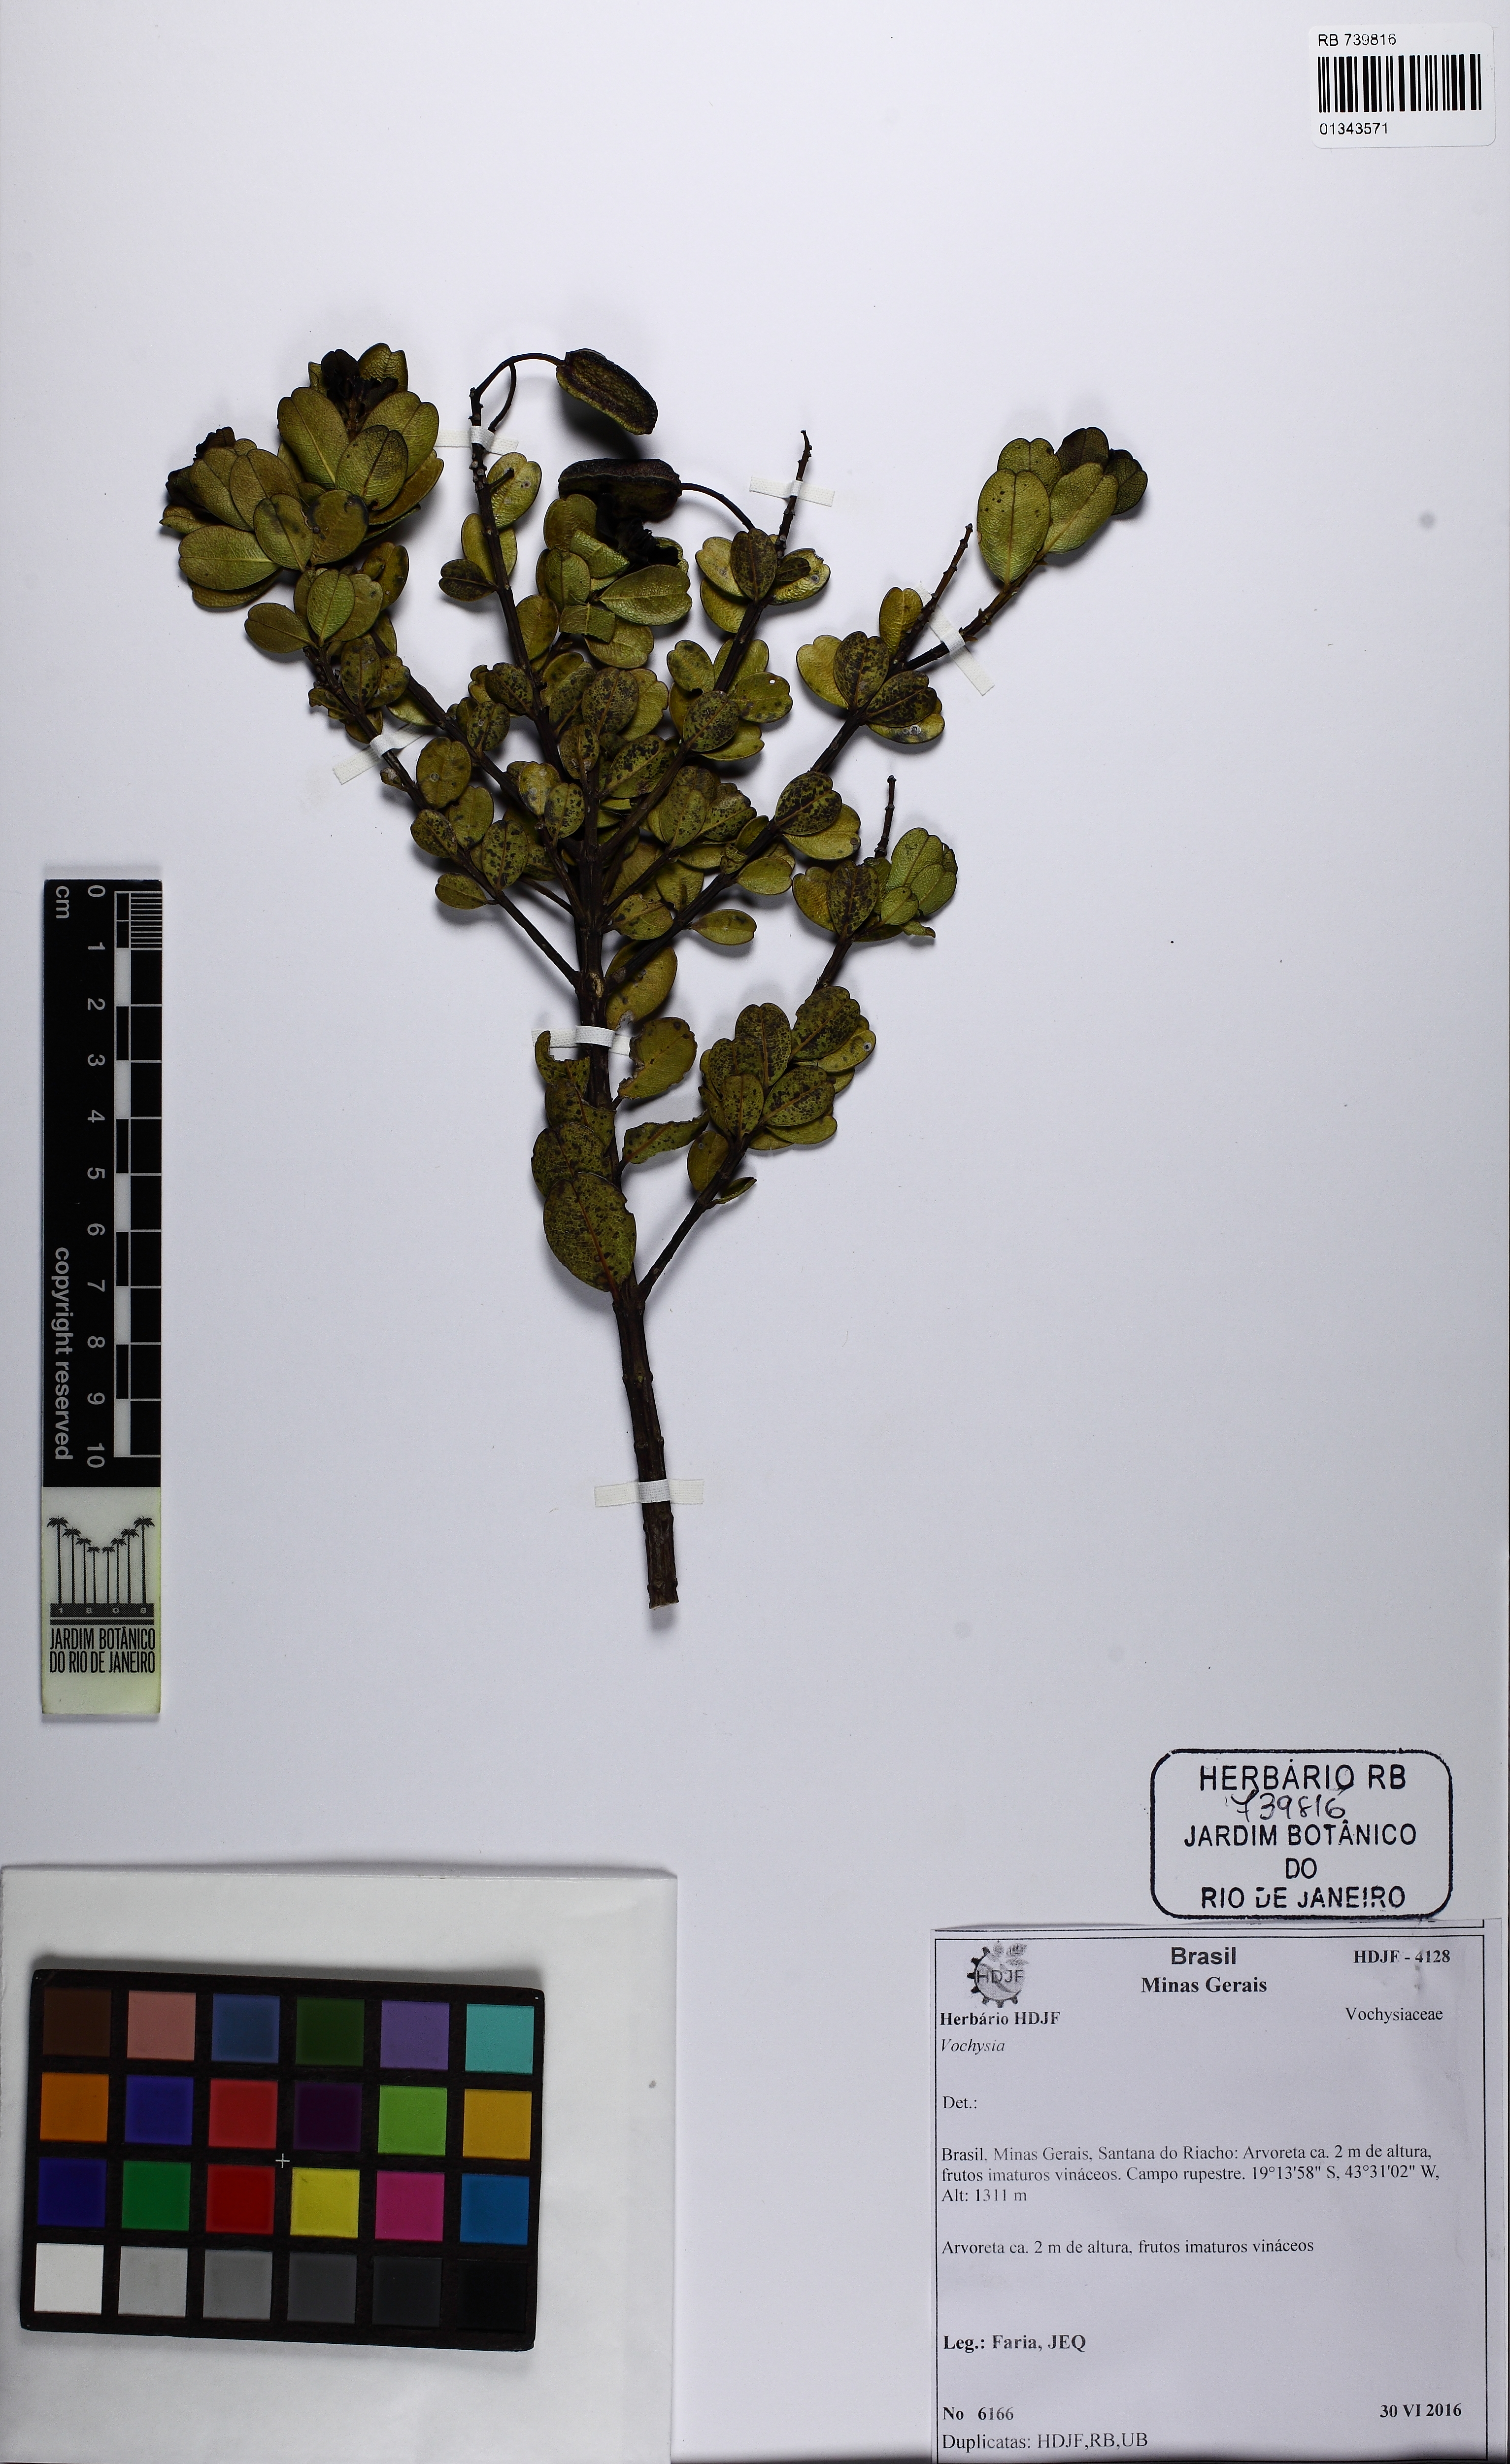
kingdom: Plantae
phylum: Tracheophyta
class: Magnoliopsida
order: Myrtales
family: Vochysiaceae
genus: Vochysia
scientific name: Vochysia
